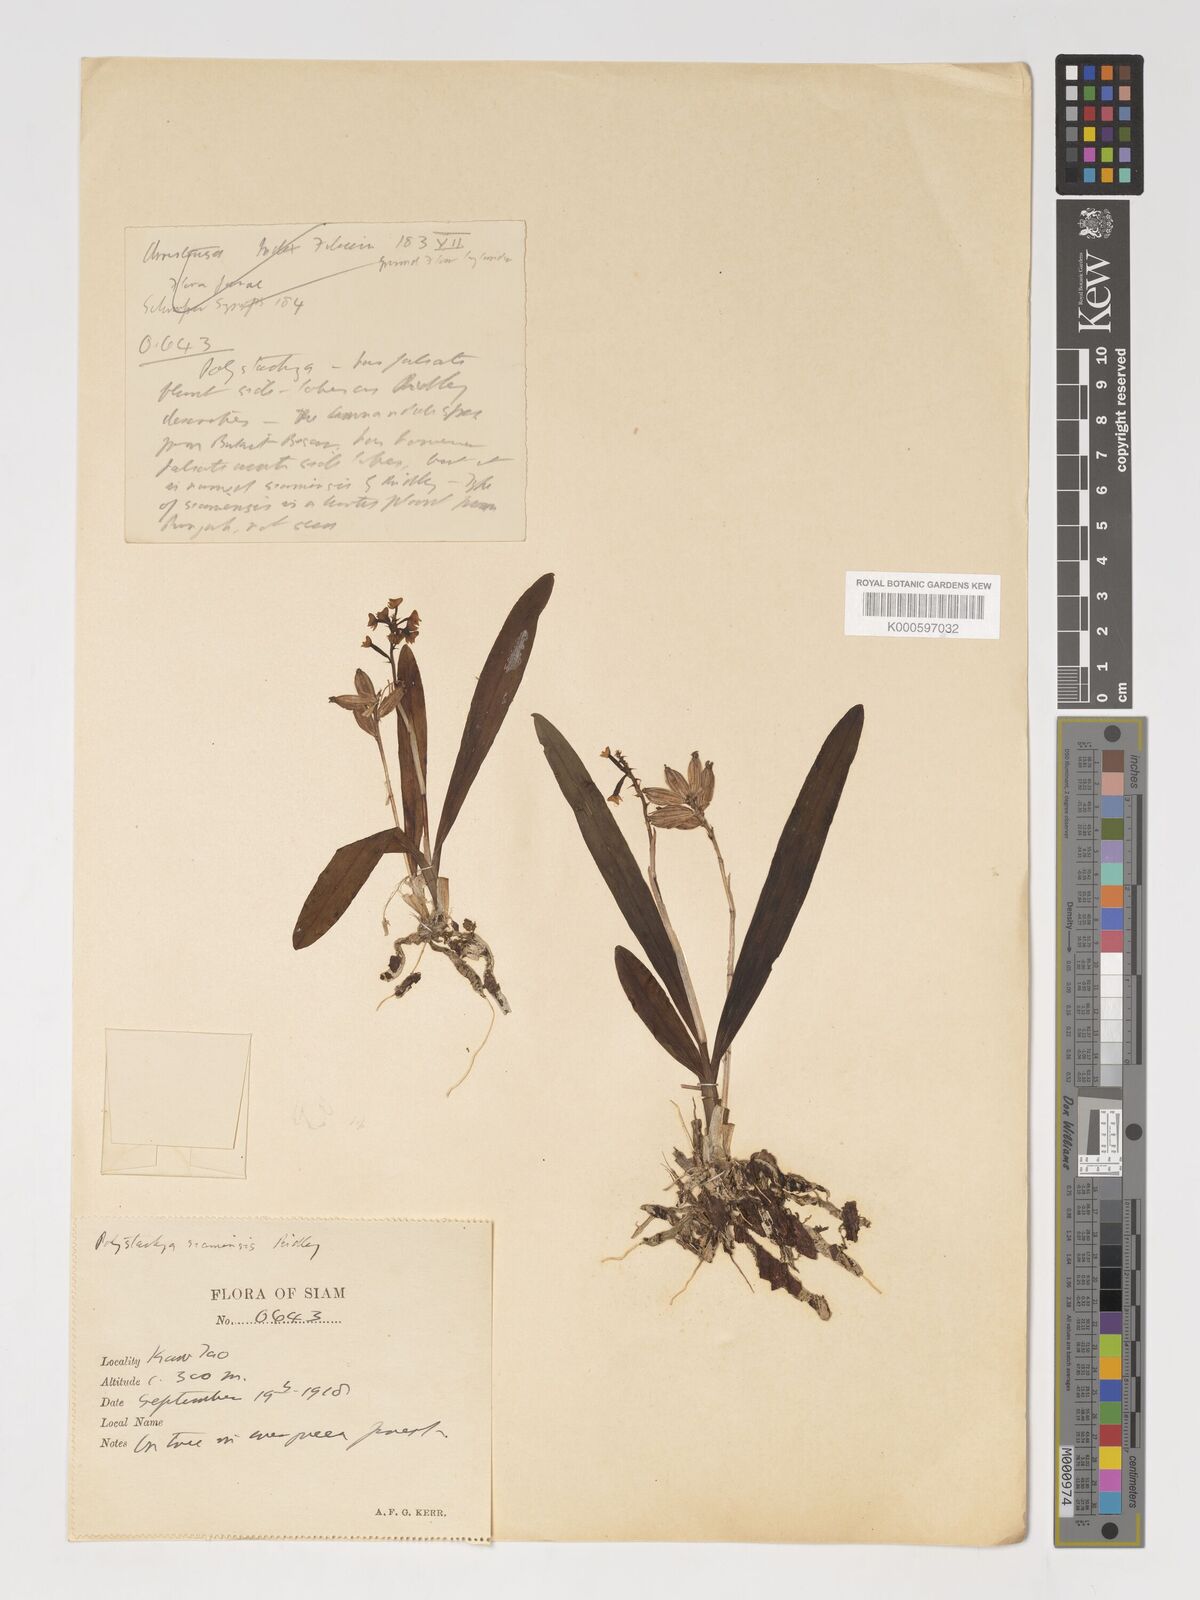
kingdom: Plantae
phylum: Tracheophyta
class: Liliopsida
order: Asparagales
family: Orchidaceae
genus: Polystachya
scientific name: Polystachya concreta
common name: Greater yellowspike orchid
